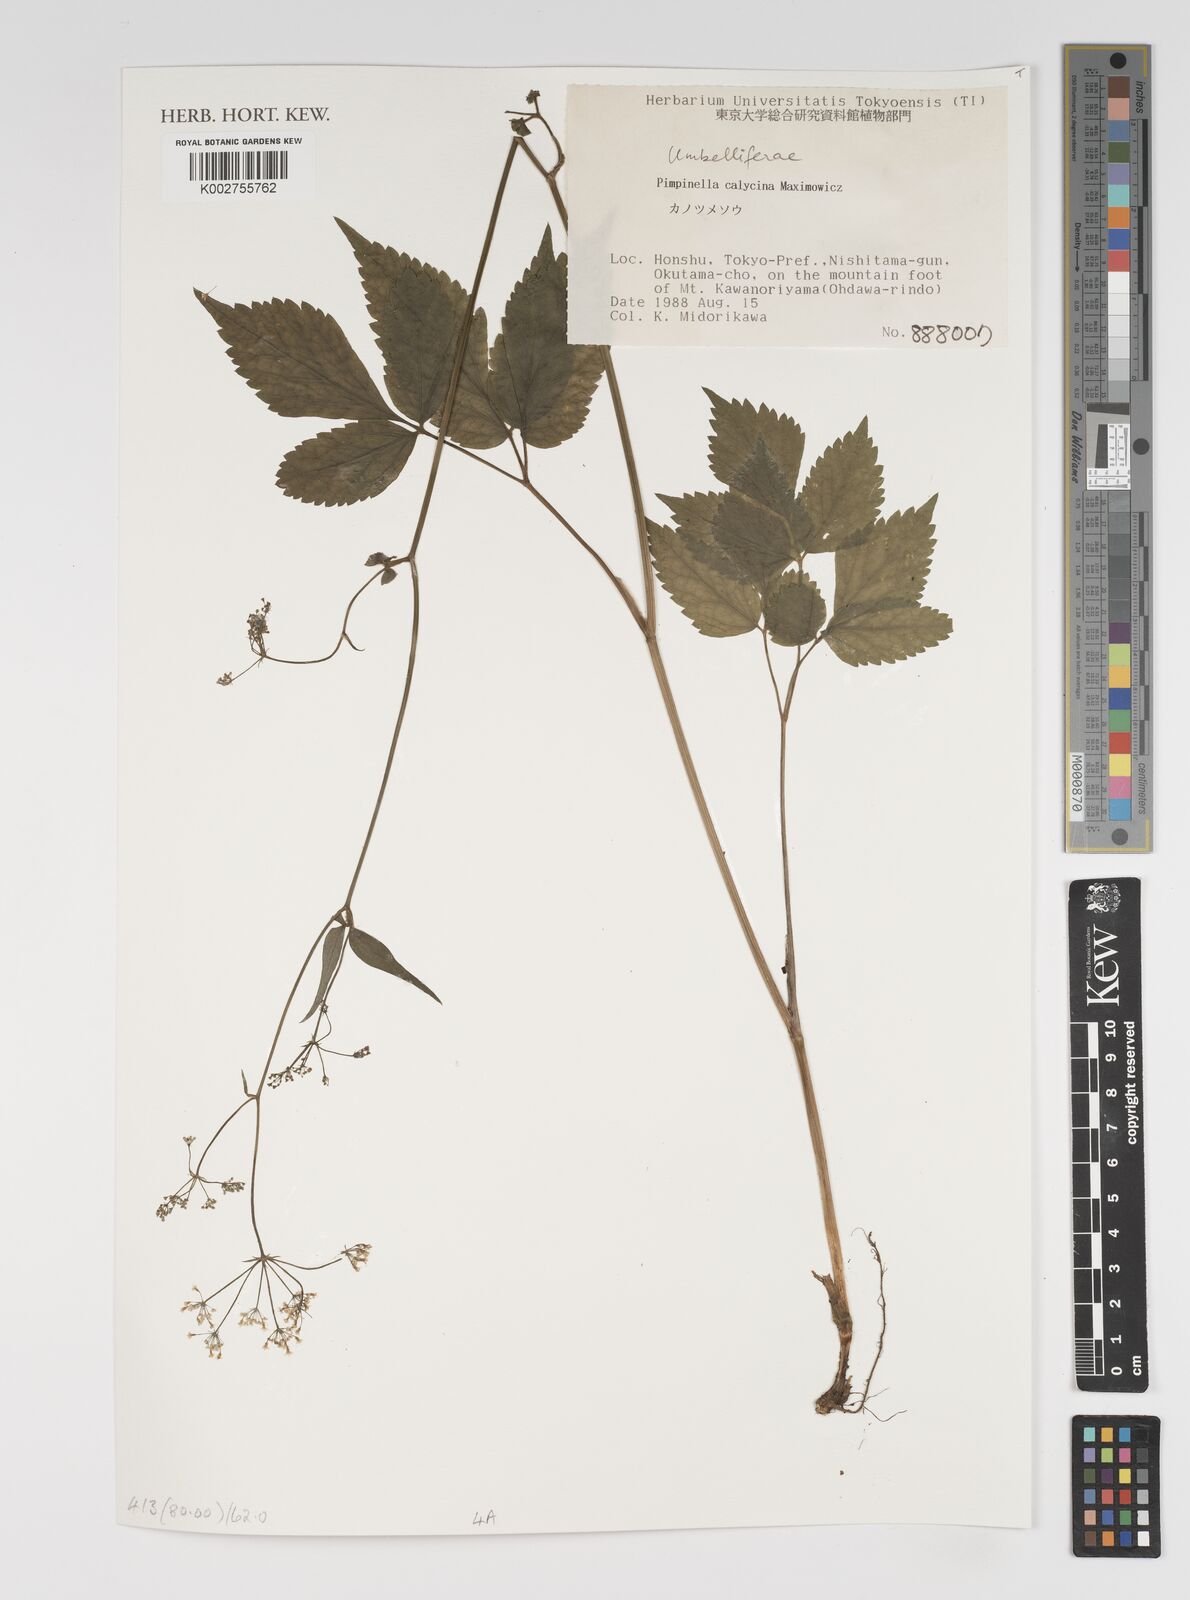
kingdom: Plantae
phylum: Tracheophyta
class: Magnoliopsida
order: Apiales
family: Apiaceae
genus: Spuriopimpinella
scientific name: Spuriopimpinella calycina
